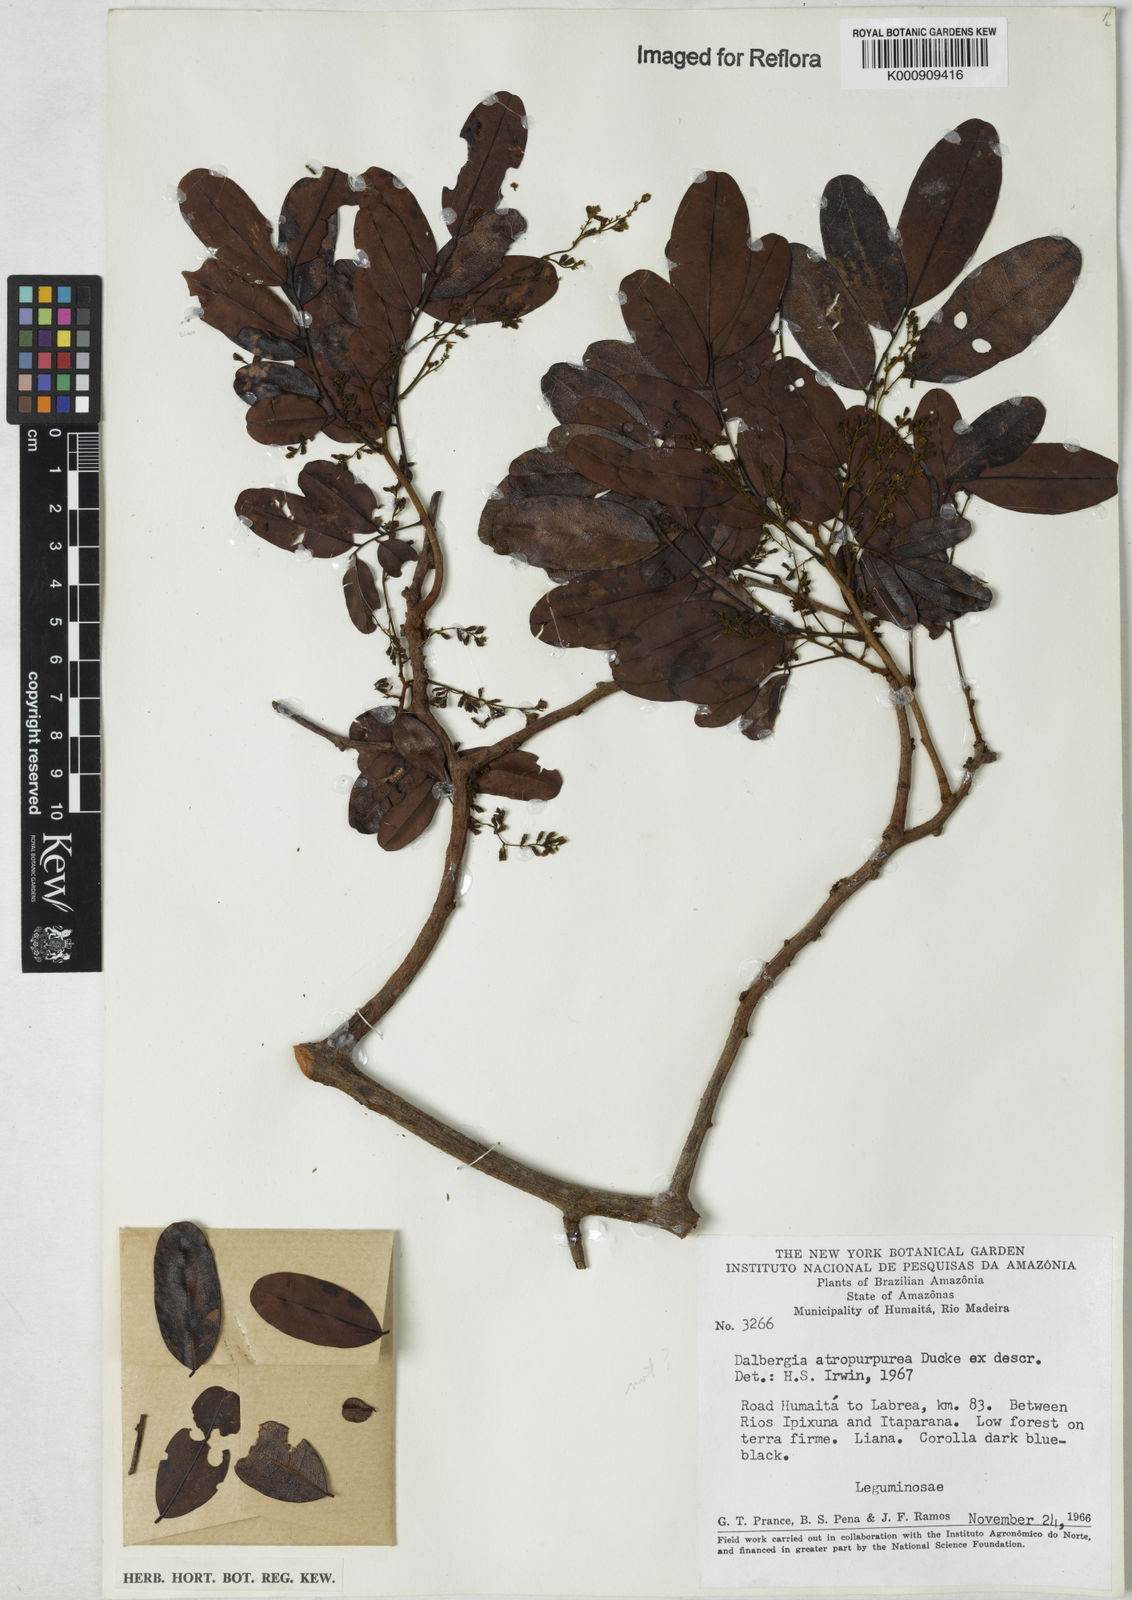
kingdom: Plantae
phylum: Tracheophyta
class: Magnoliopsida
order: Fabales
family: Fabaceae
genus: Dalbergia
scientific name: Dalbergia
